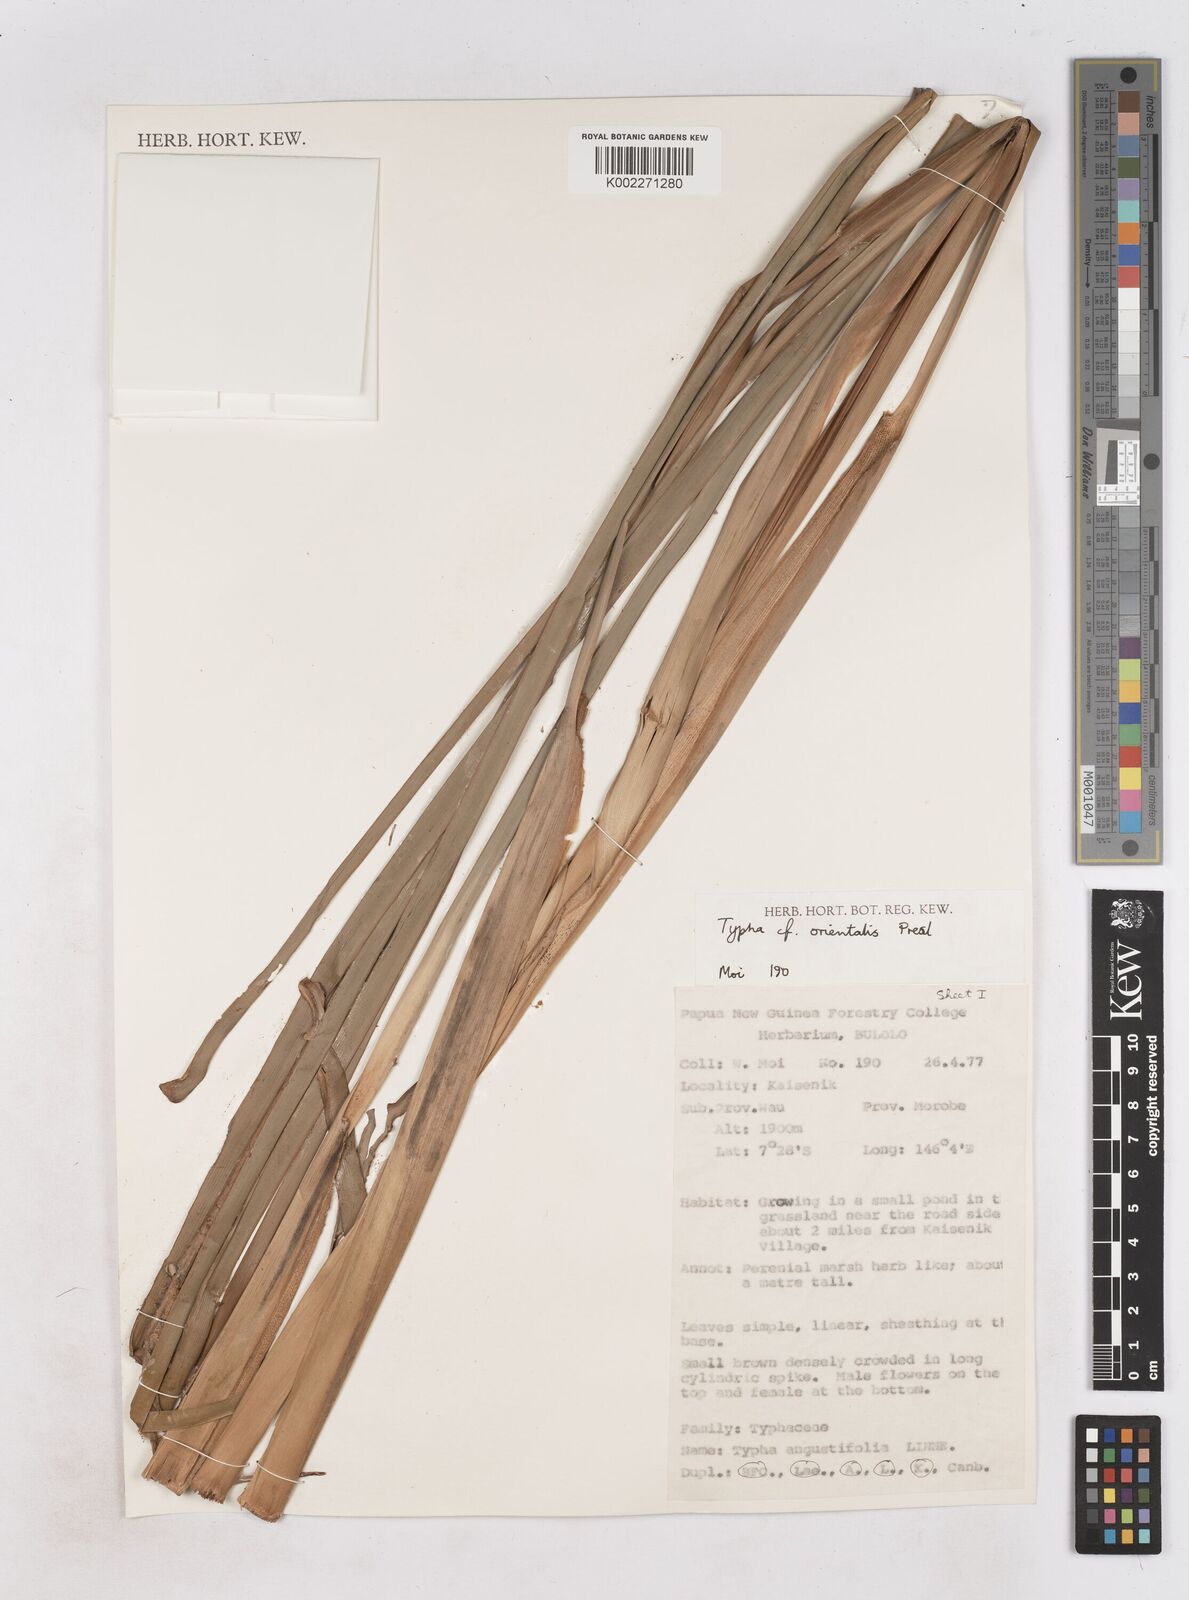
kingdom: Plantae
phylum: Tracheophyta
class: Liliopsida
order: Poales
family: Typhaceae
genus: Typha
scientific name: Typha orientalis
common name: Bullrush
